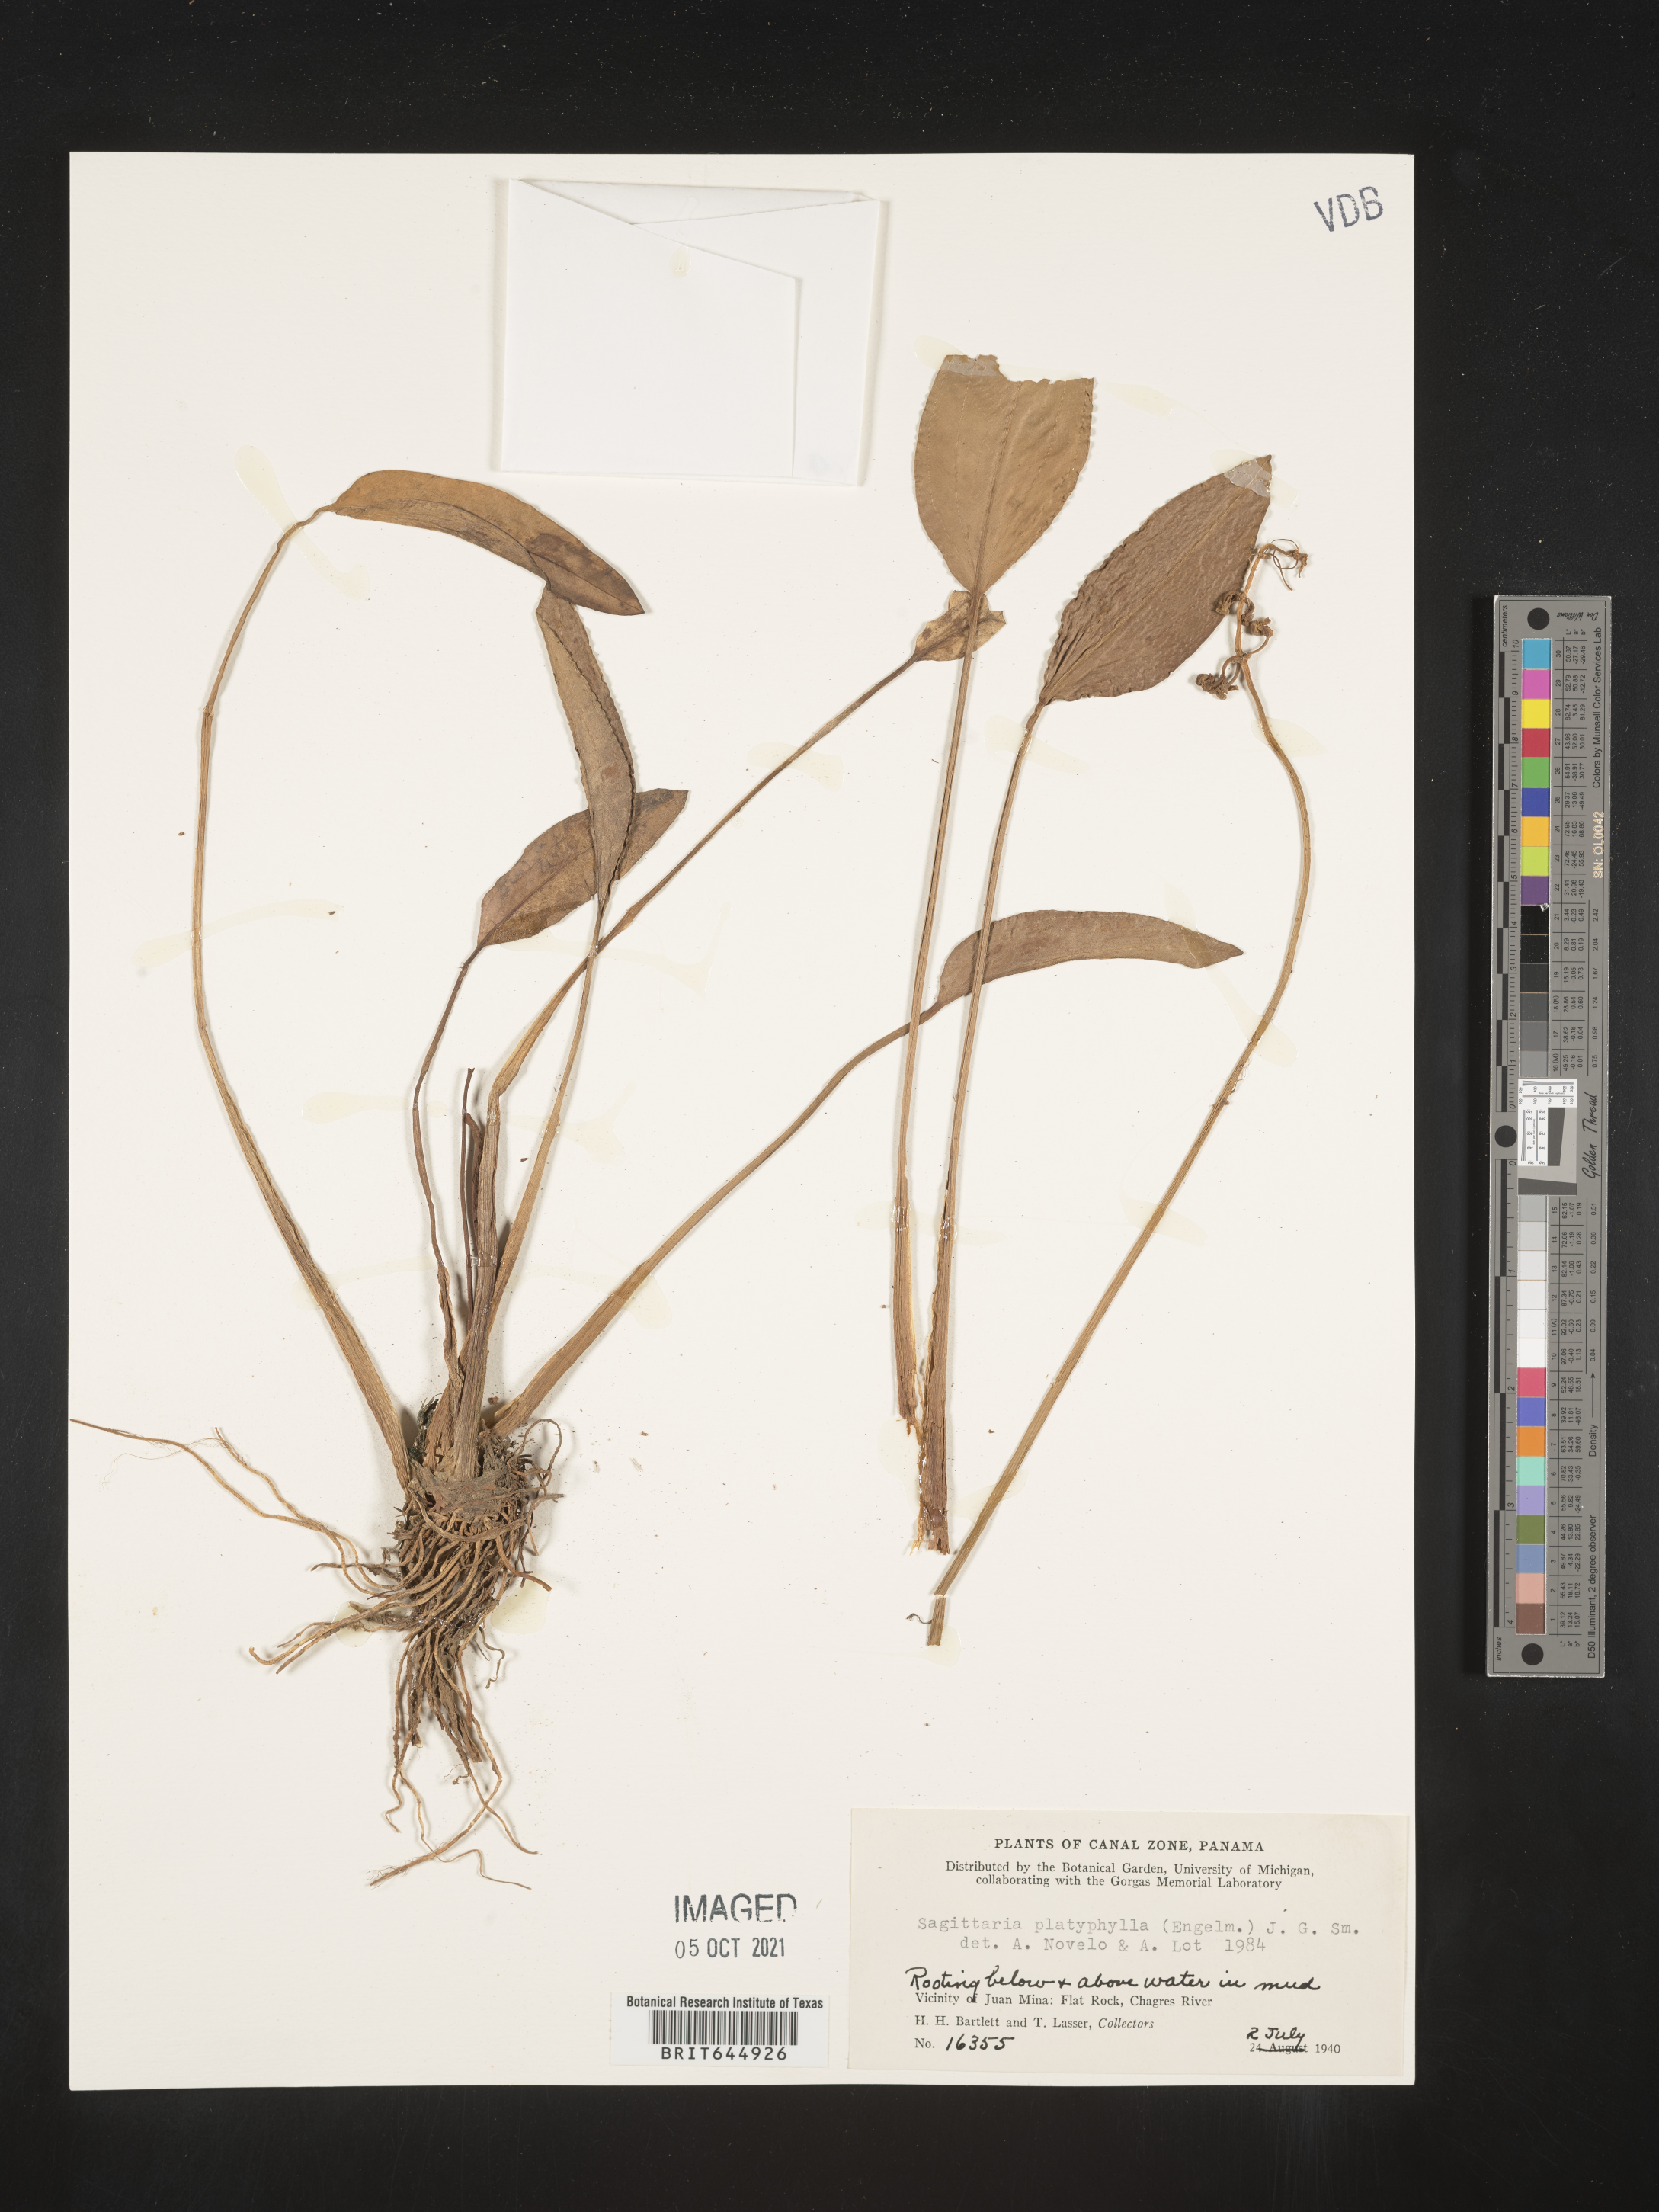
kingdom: Plantae
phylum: Tracheophyta
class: Liliopsida
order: Alismatales
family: Alismataceae
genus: Sagittaria
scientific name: Sagittaria platyphylla
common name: Broad-leaf arrowhead
